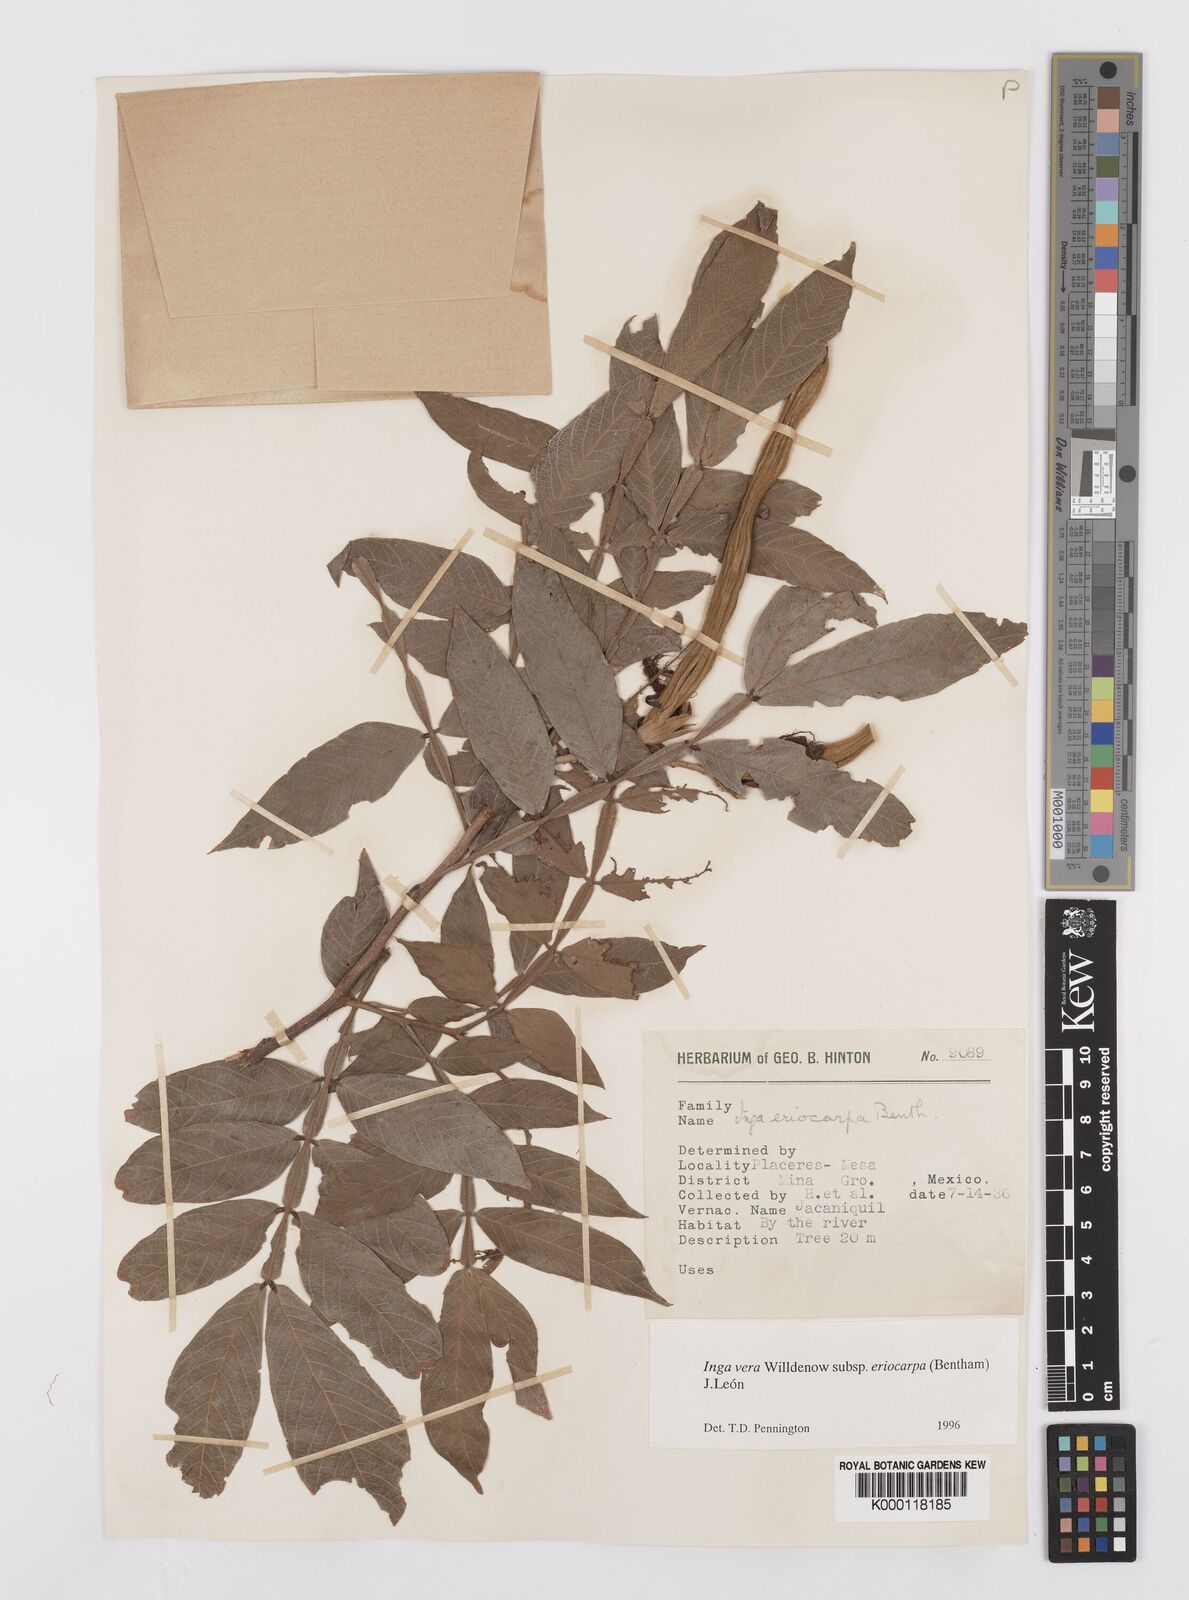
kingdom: Plantae
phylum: Tracheophyta
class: Magnoliopsida
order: Fabales
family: Fabaceae
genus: Inga
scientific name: Inga vera
